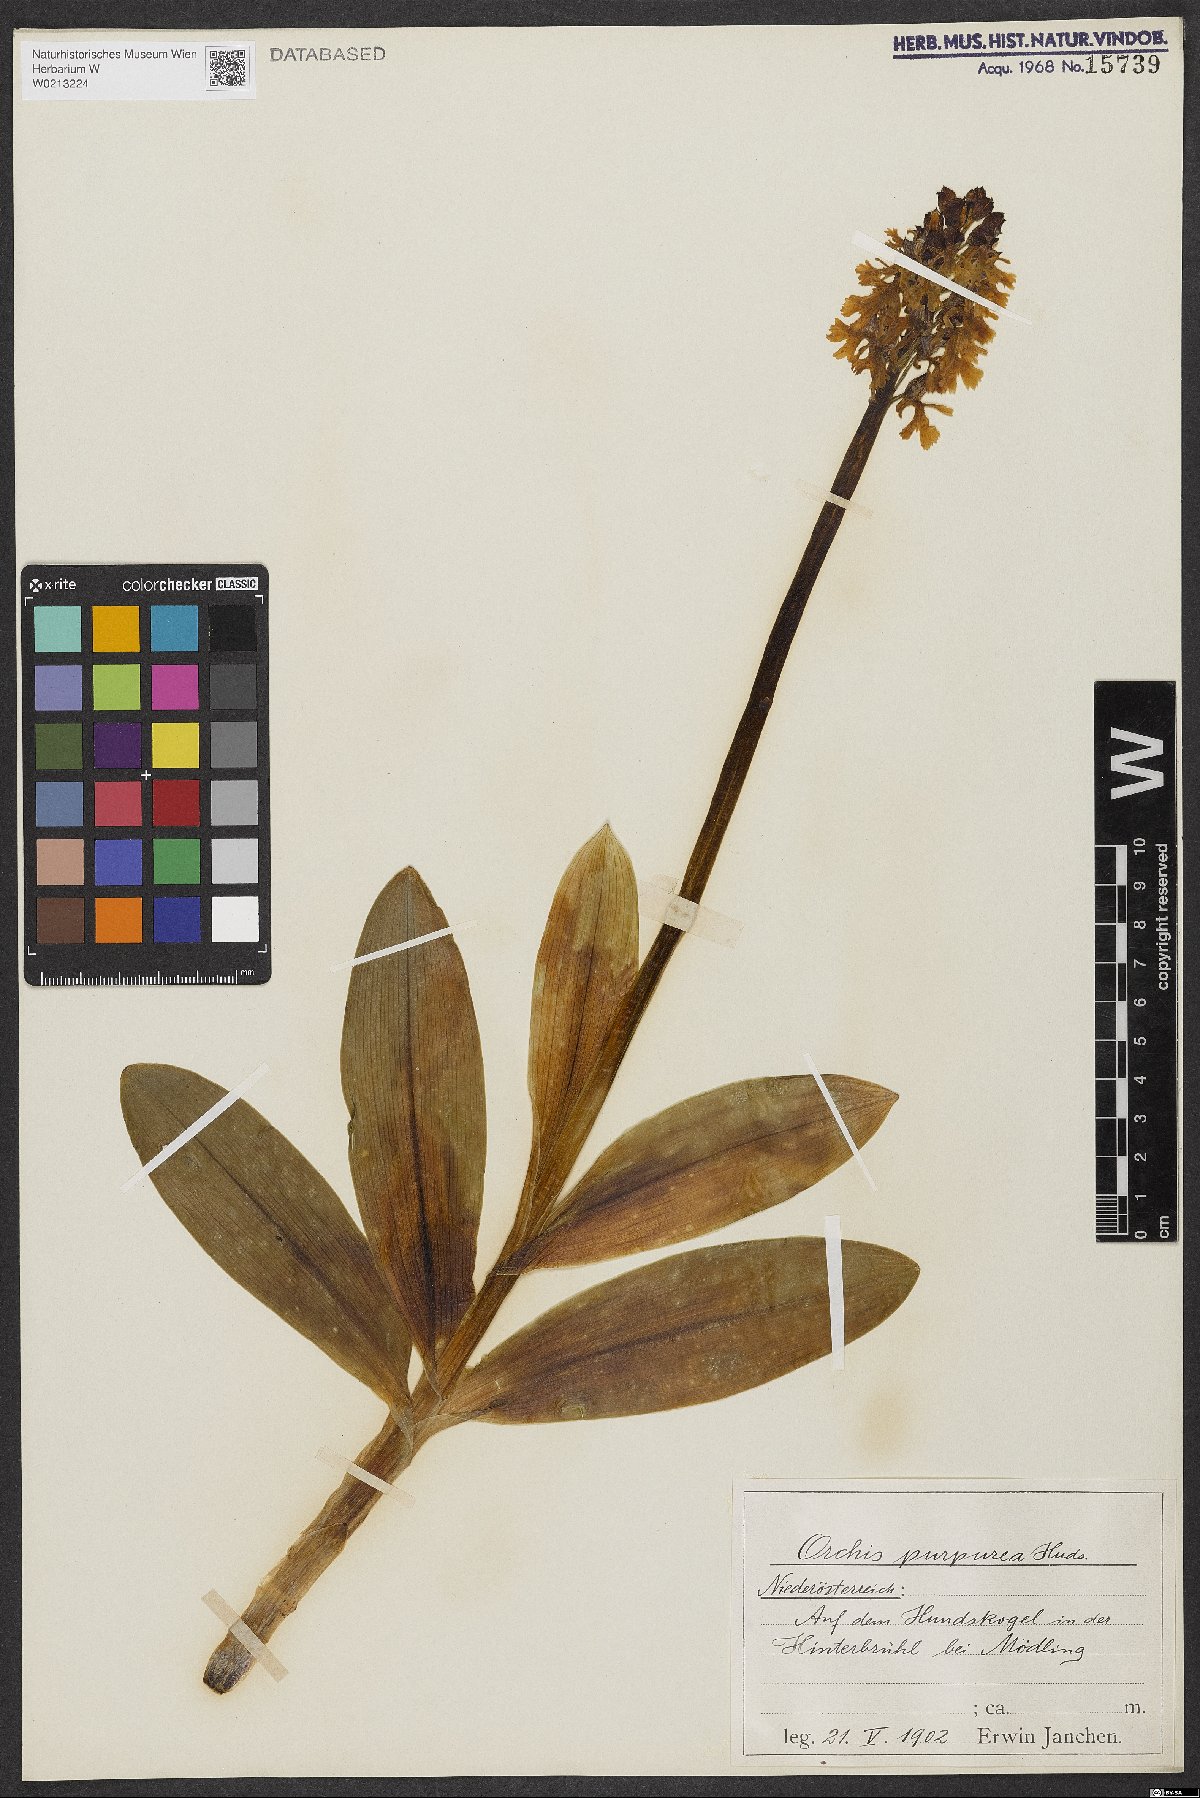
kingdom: Plantae
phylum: Tracheophyta
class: Liliopsida
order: Asparagales
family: Orchidaceae
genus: Orchis
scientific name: Orchis purpurea
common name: Lady orchid
